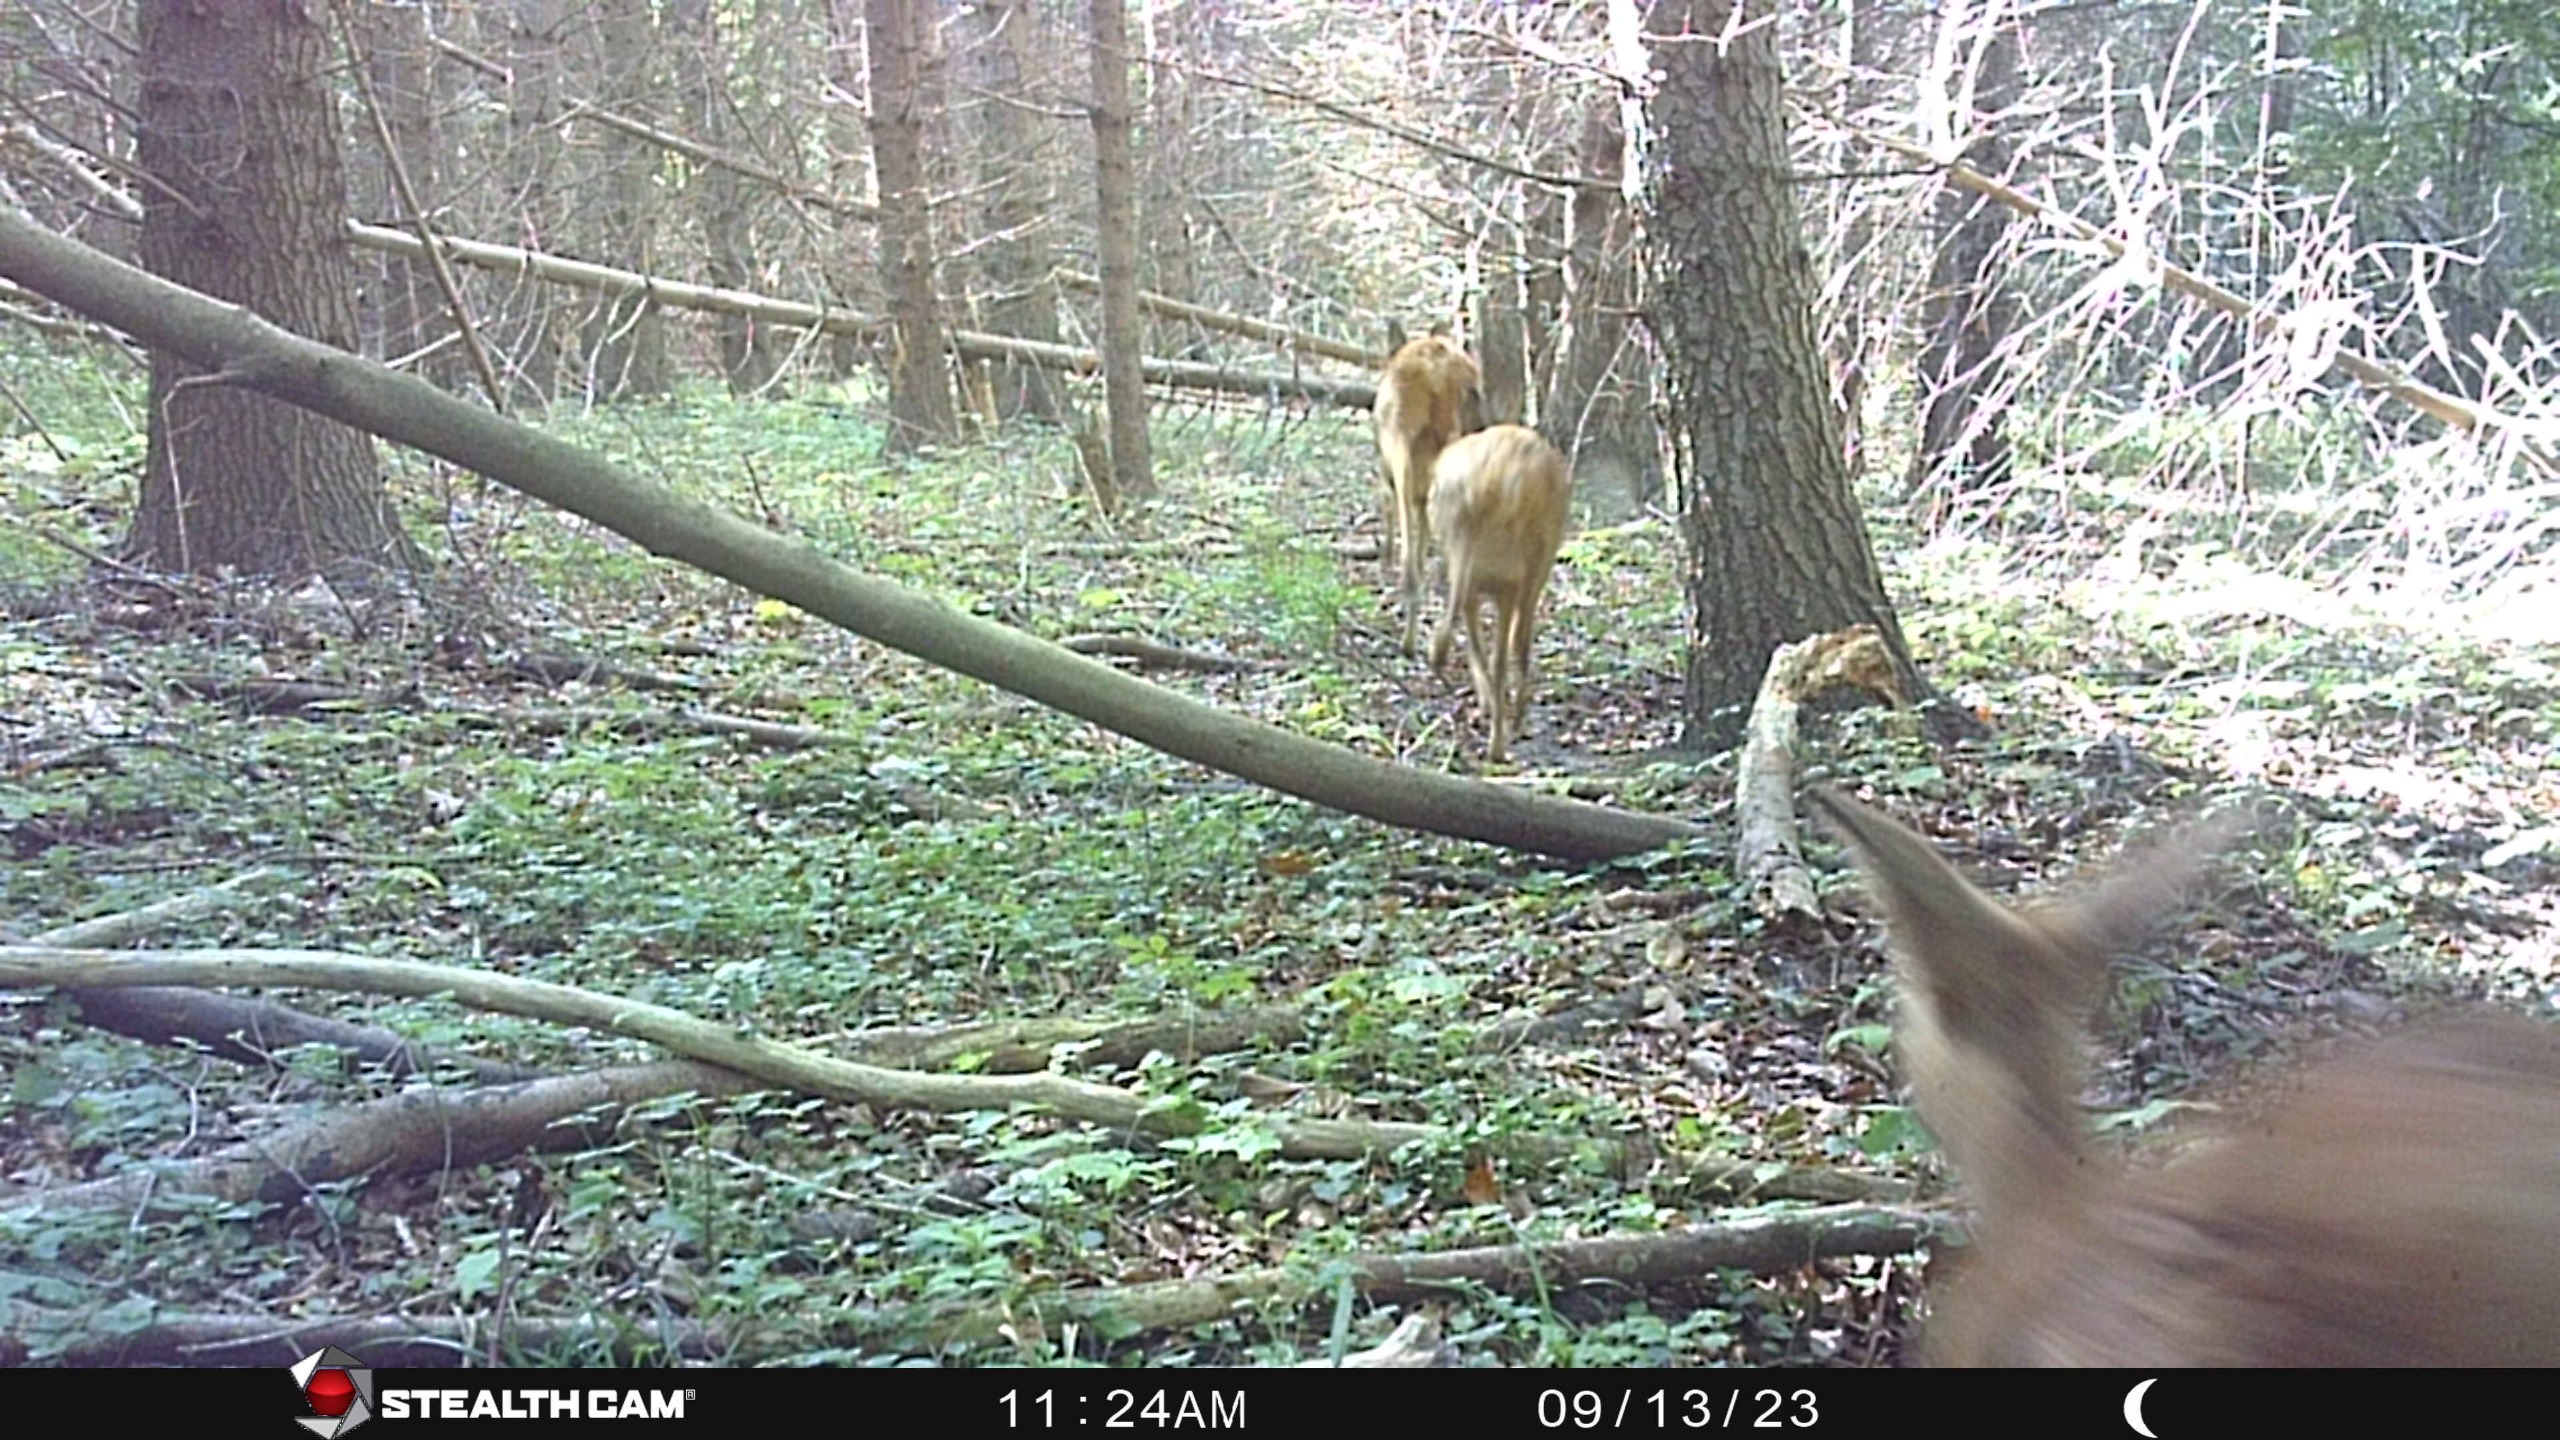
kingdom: Animalia
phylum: Chordata
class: Mammalia
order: Artiodactyla
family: Cervidae
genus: Capreolus
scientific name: Capreolus capreolus
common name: Rådyr
